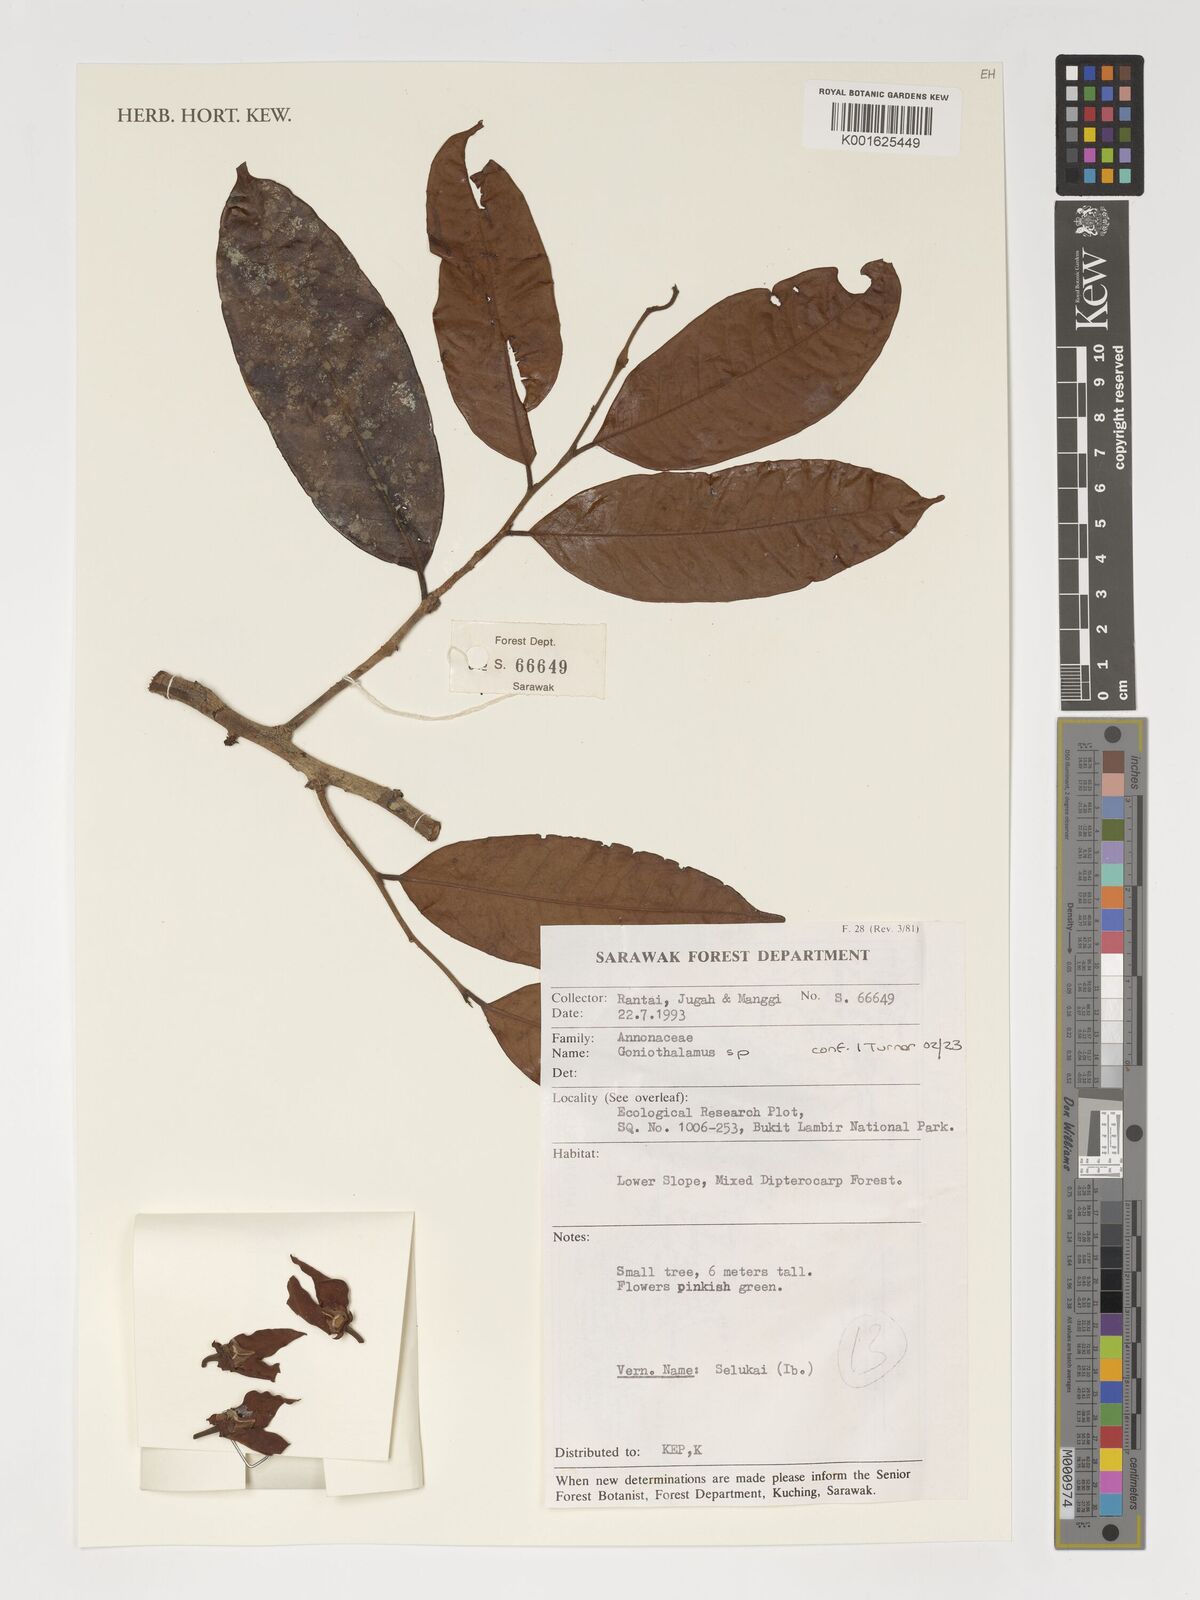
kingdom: Plantae
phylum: Tracheophyta
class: Magnoliopsida
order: Magnoliales
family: Annonaceae
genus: Goniothalamus
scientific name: Goniothalamus
